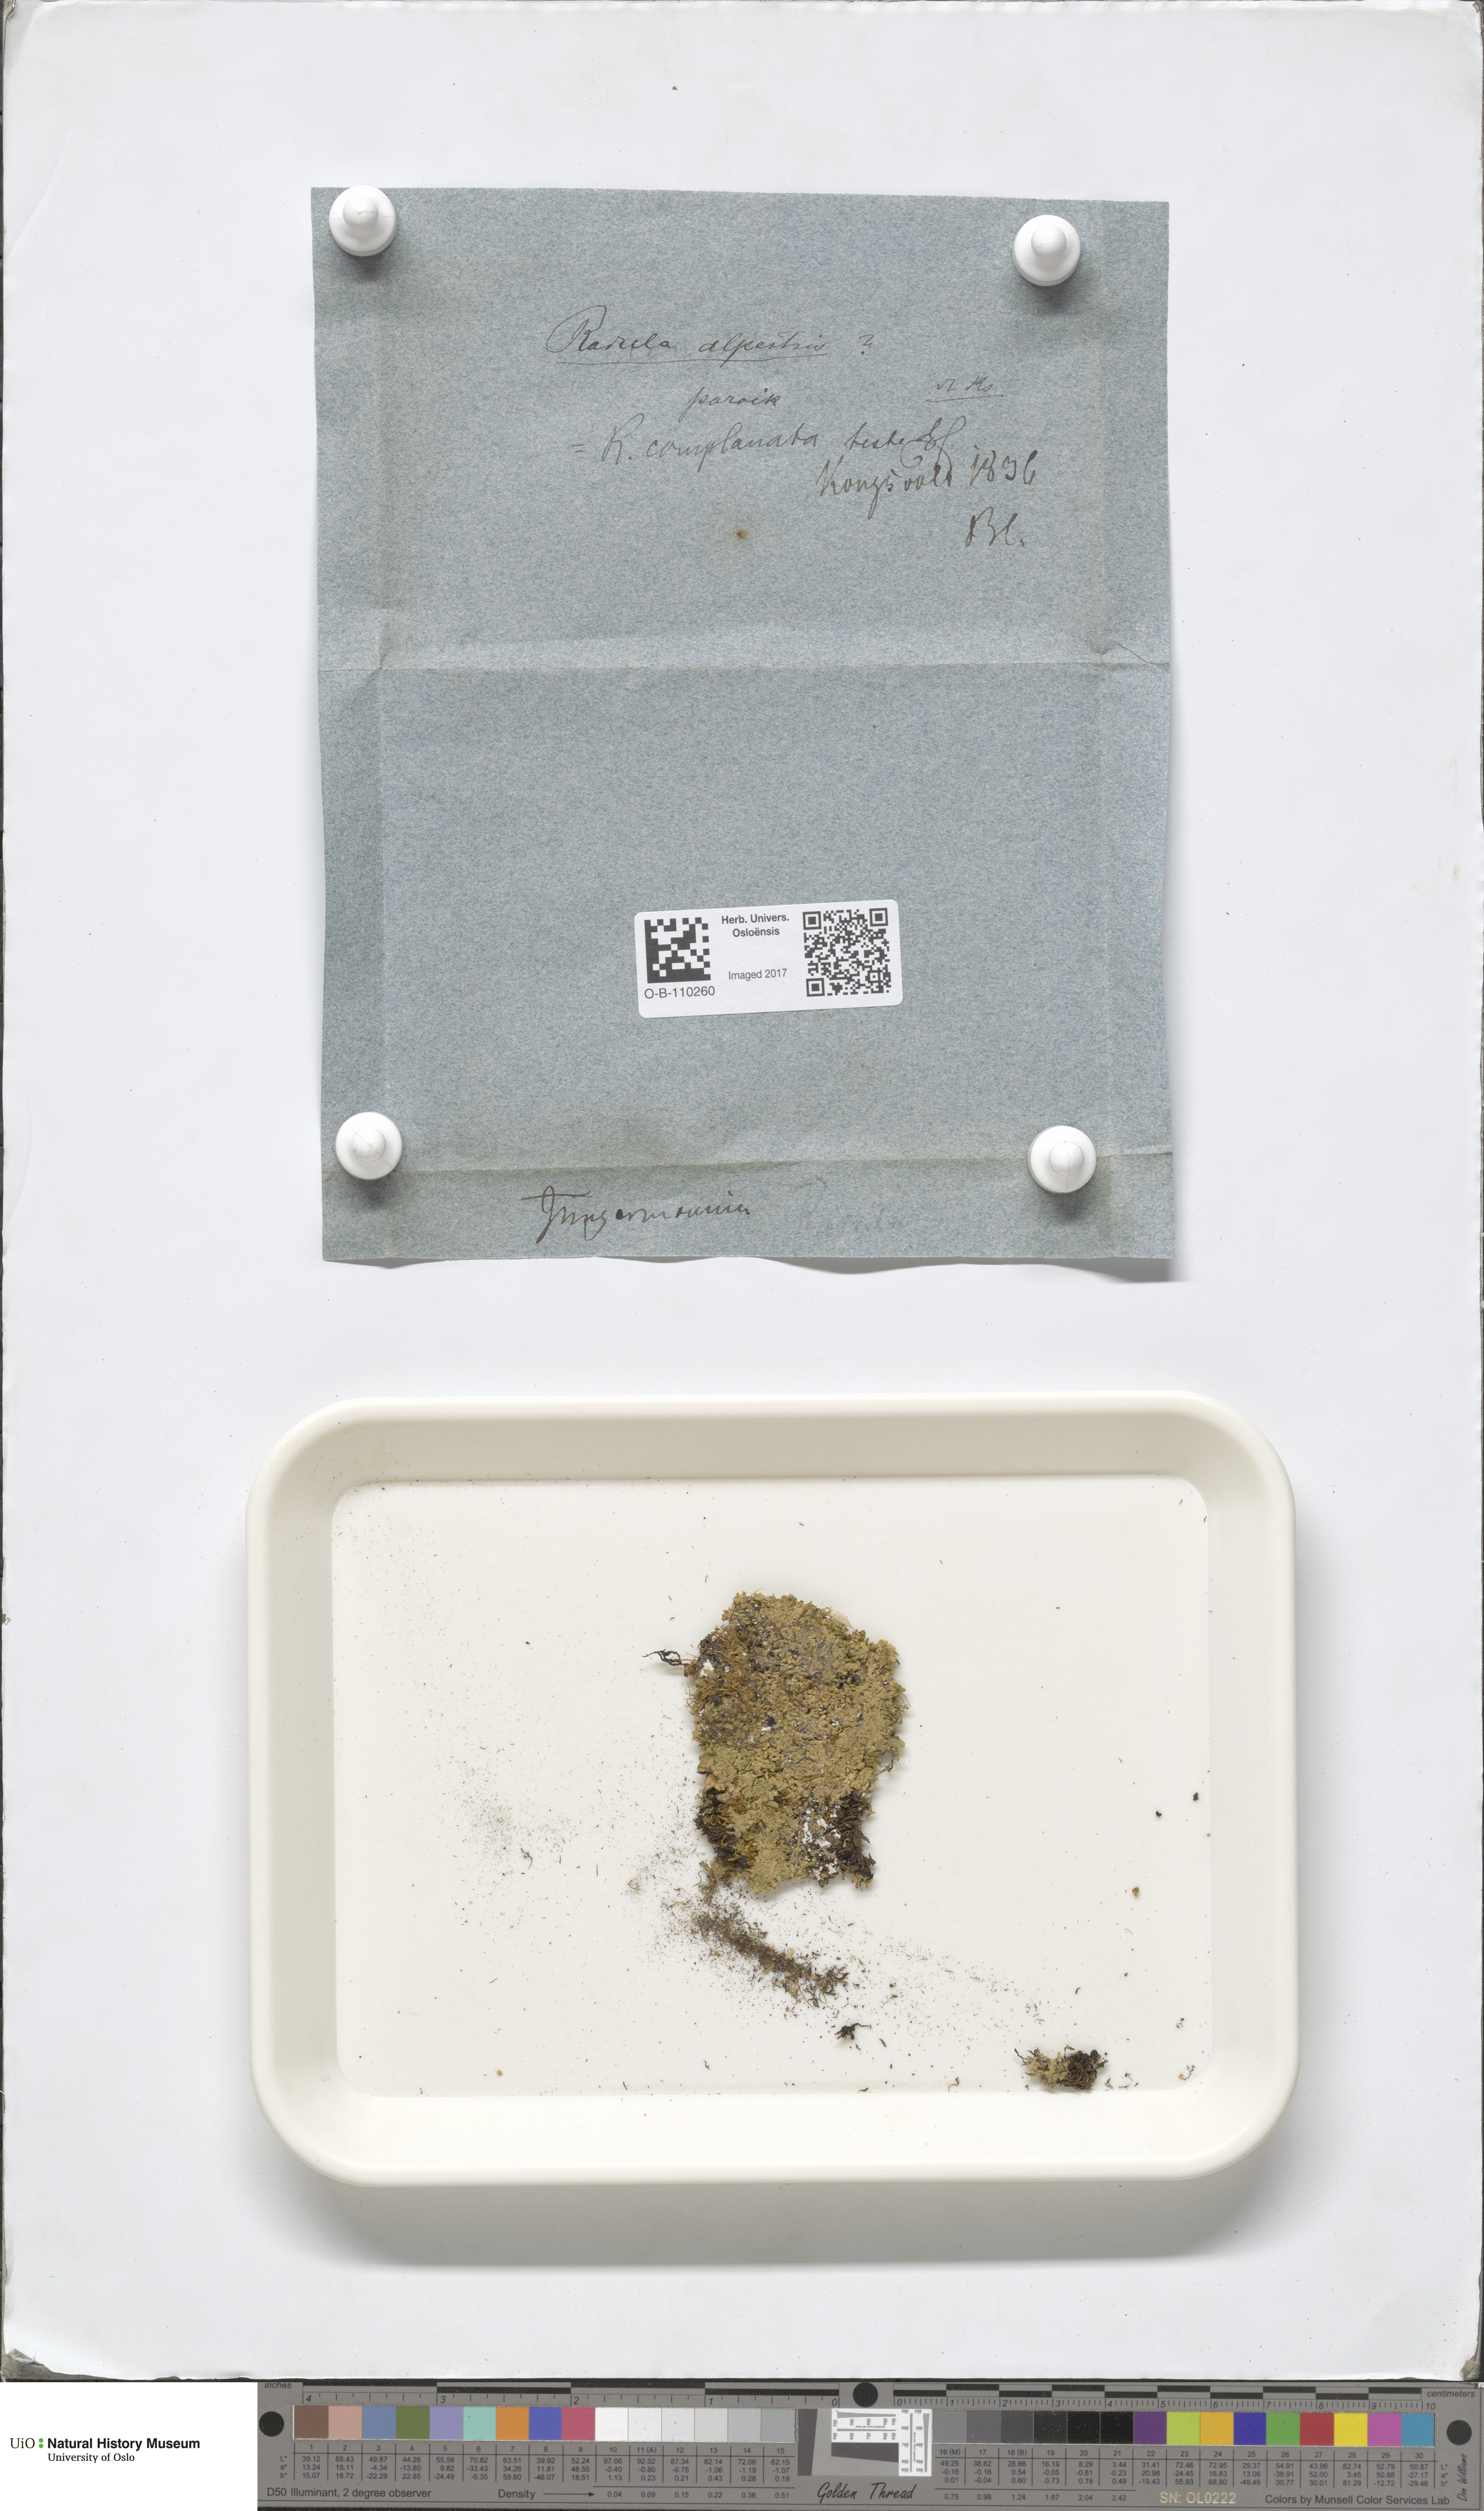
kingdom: Plantae
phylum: Marchantiophyta
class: Jungermanniopsida
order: Jungermanniales
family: Lophoziaceae
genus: Trilophozia
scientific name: Trilophozia quinquedentata
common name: Large notchwort
